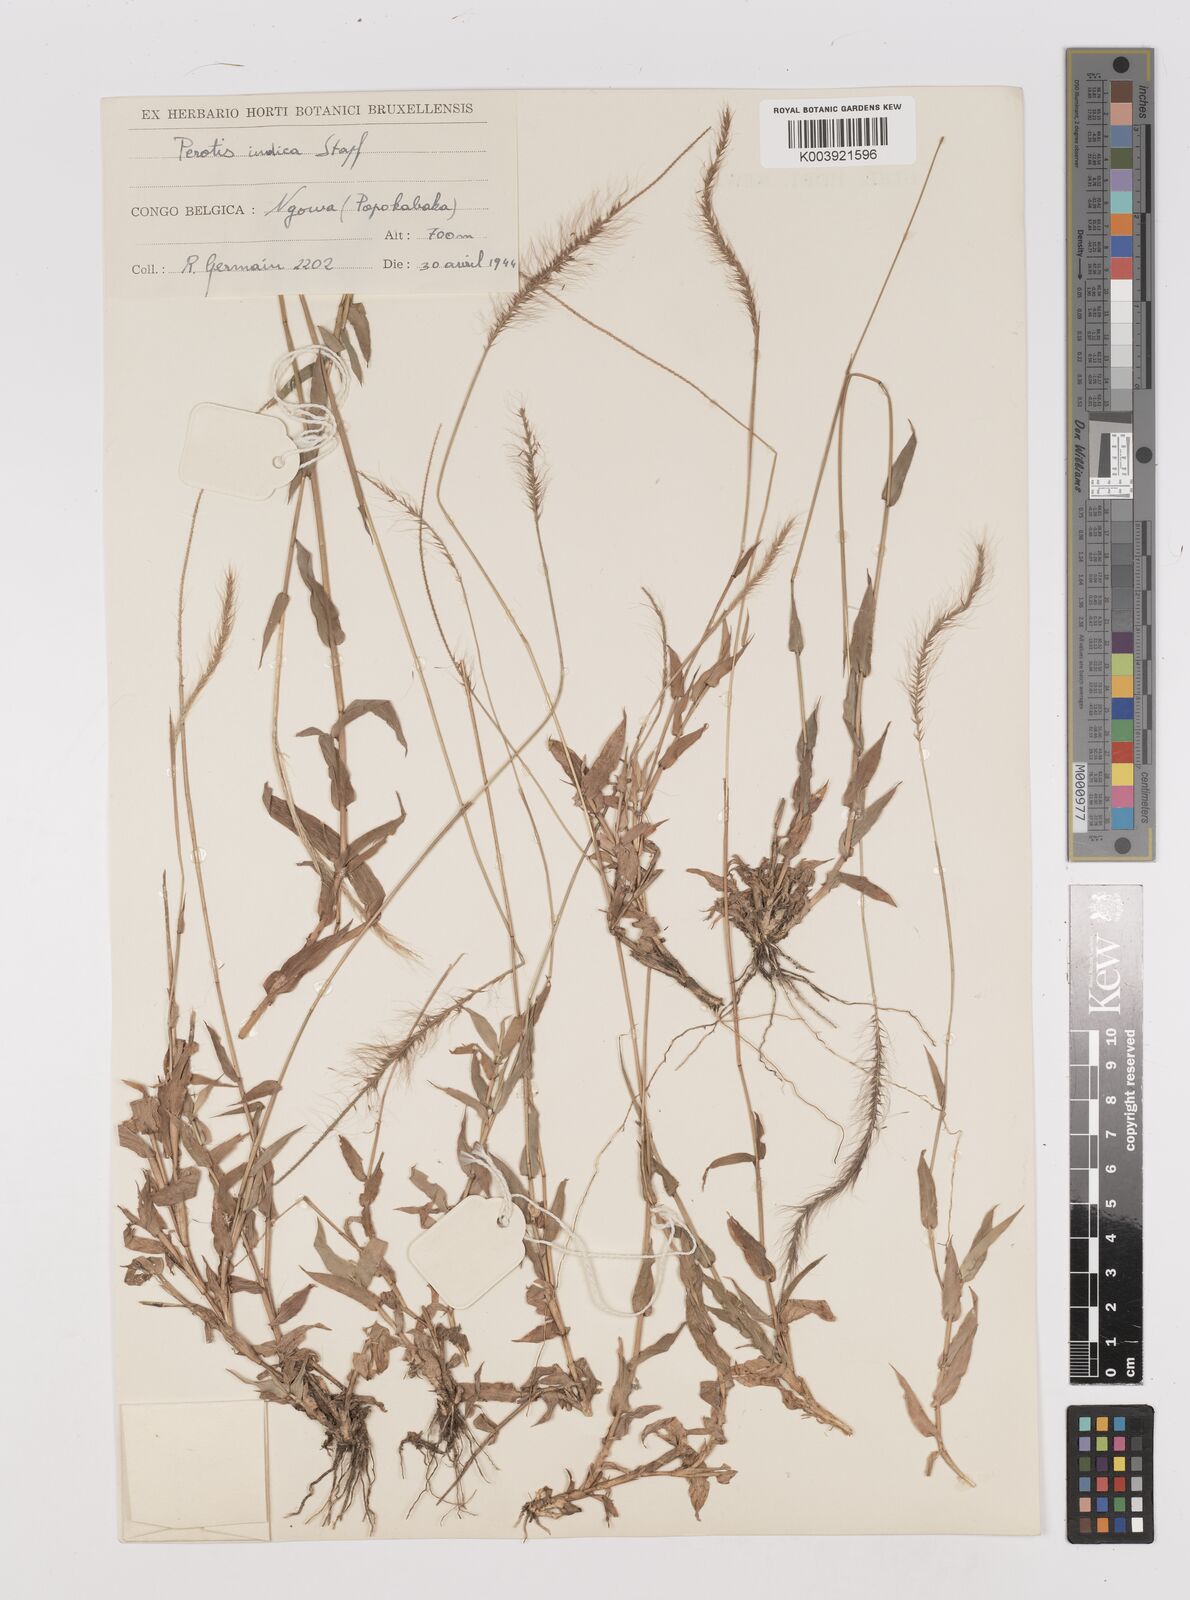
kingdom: Plantae
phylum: Tracheophyta
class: Liliopsida
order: Poales
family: Poaceae
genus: Perotis
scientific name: Perotis patens
